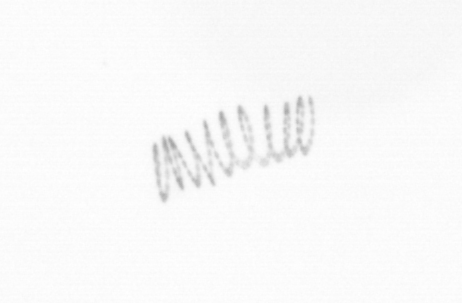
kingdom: Chromista
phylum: Ochrophyta
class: Bacillariophyceae
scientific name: Bacillariophyceae
